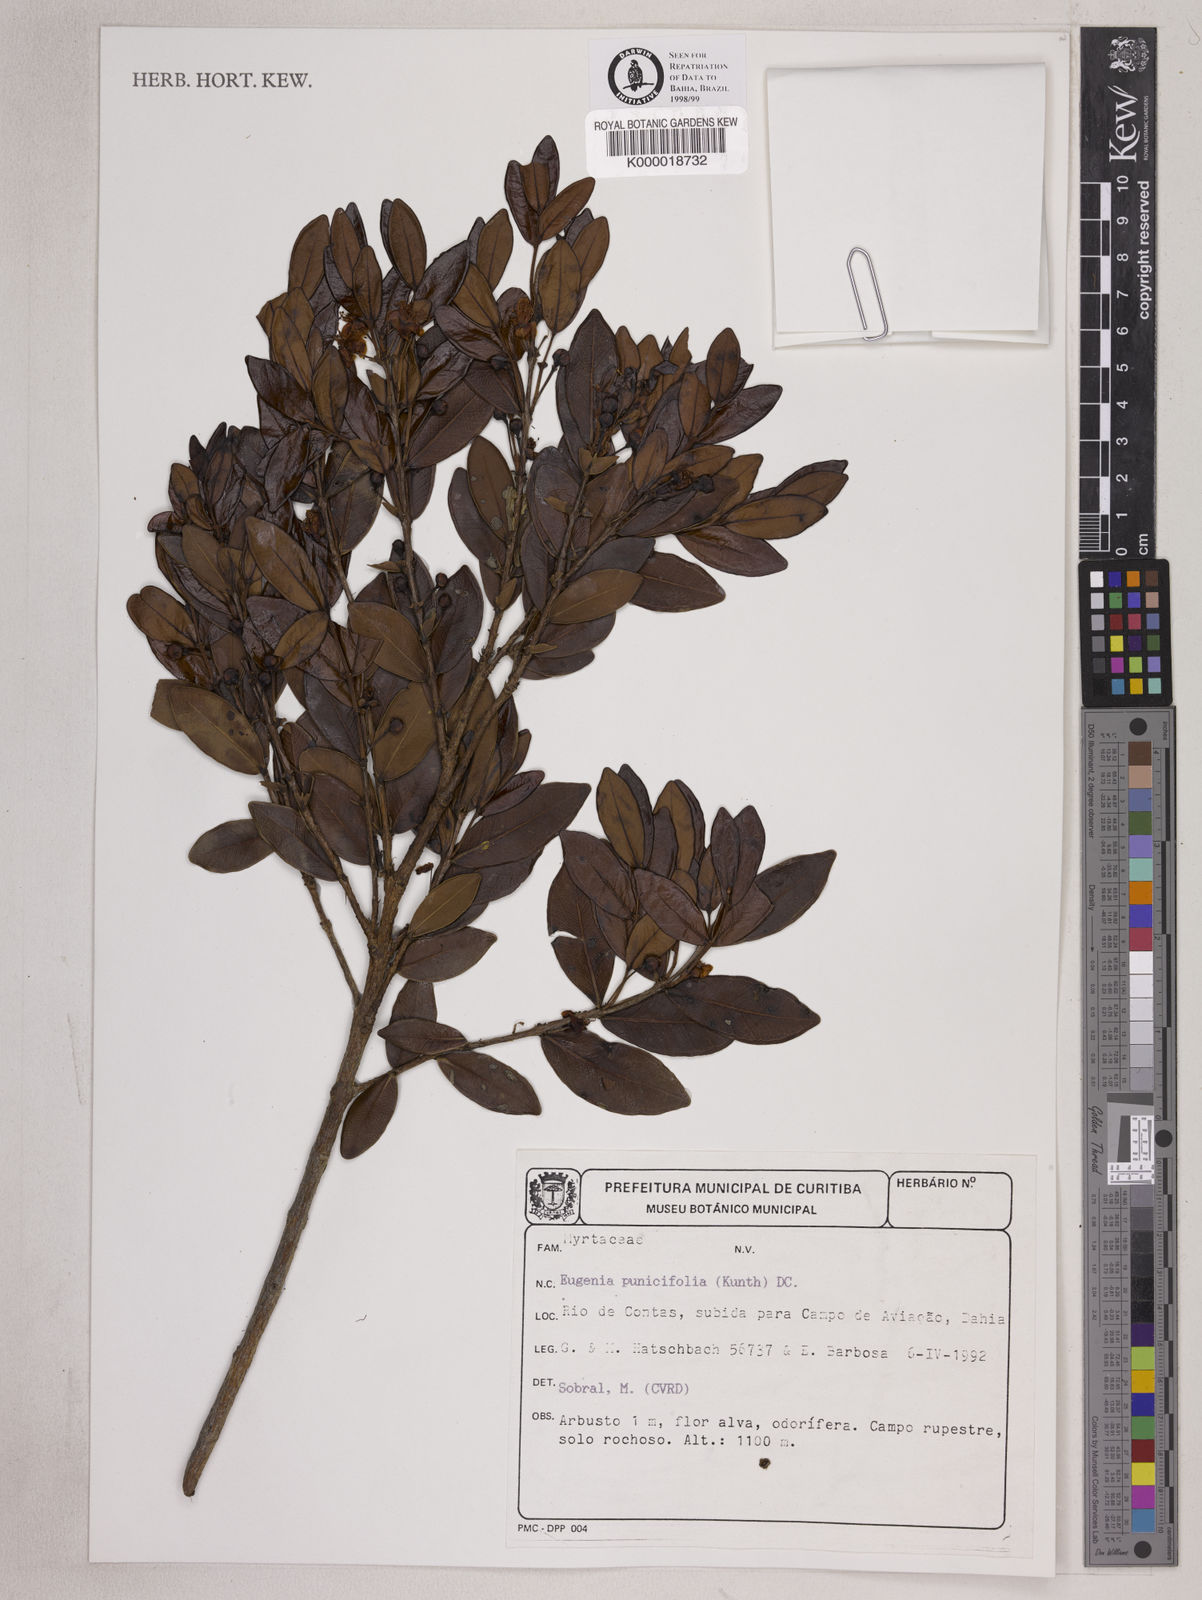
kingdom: Plantae
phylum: Tracheophyta
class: Magnoliopsida
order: Myrtales
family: Myrtaceae
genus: Eugenia
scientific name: Eugenia punicifolia
